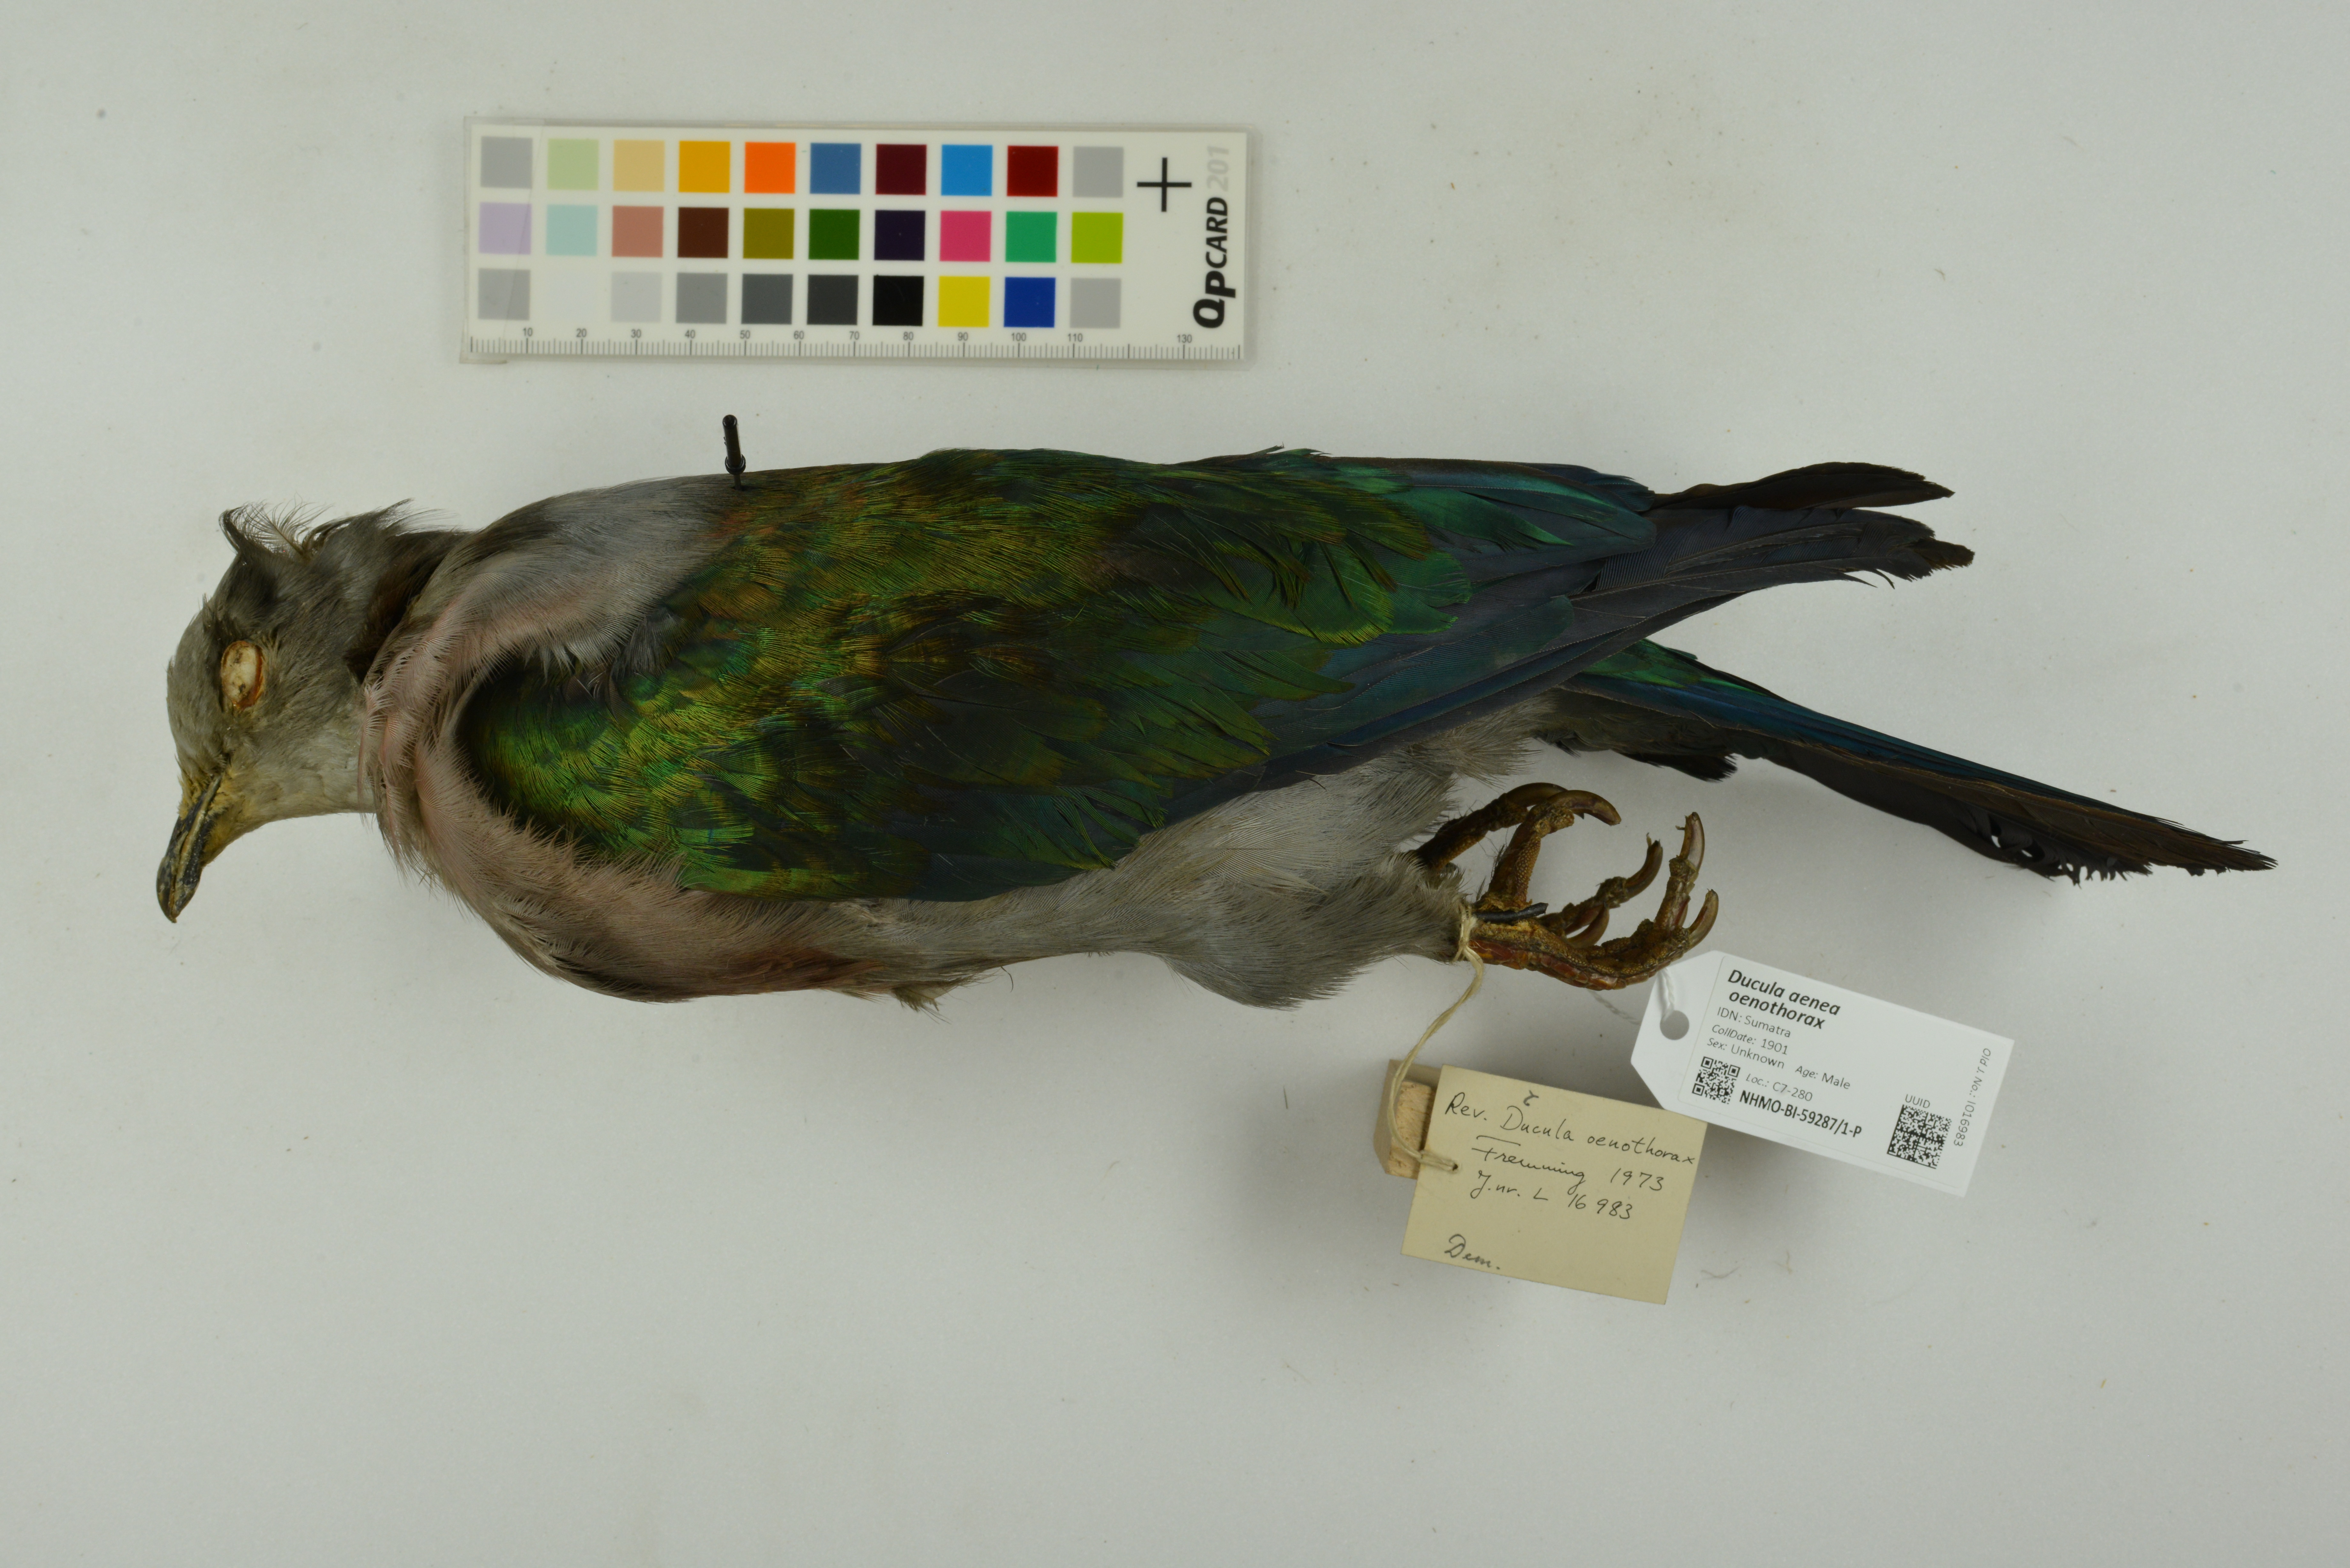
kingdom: Animalia
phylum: Chordata
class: Aves
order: Columbiformes
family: Columbidae
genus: Ducula
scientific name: Ducula aenea
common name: Green imperial pigeon
